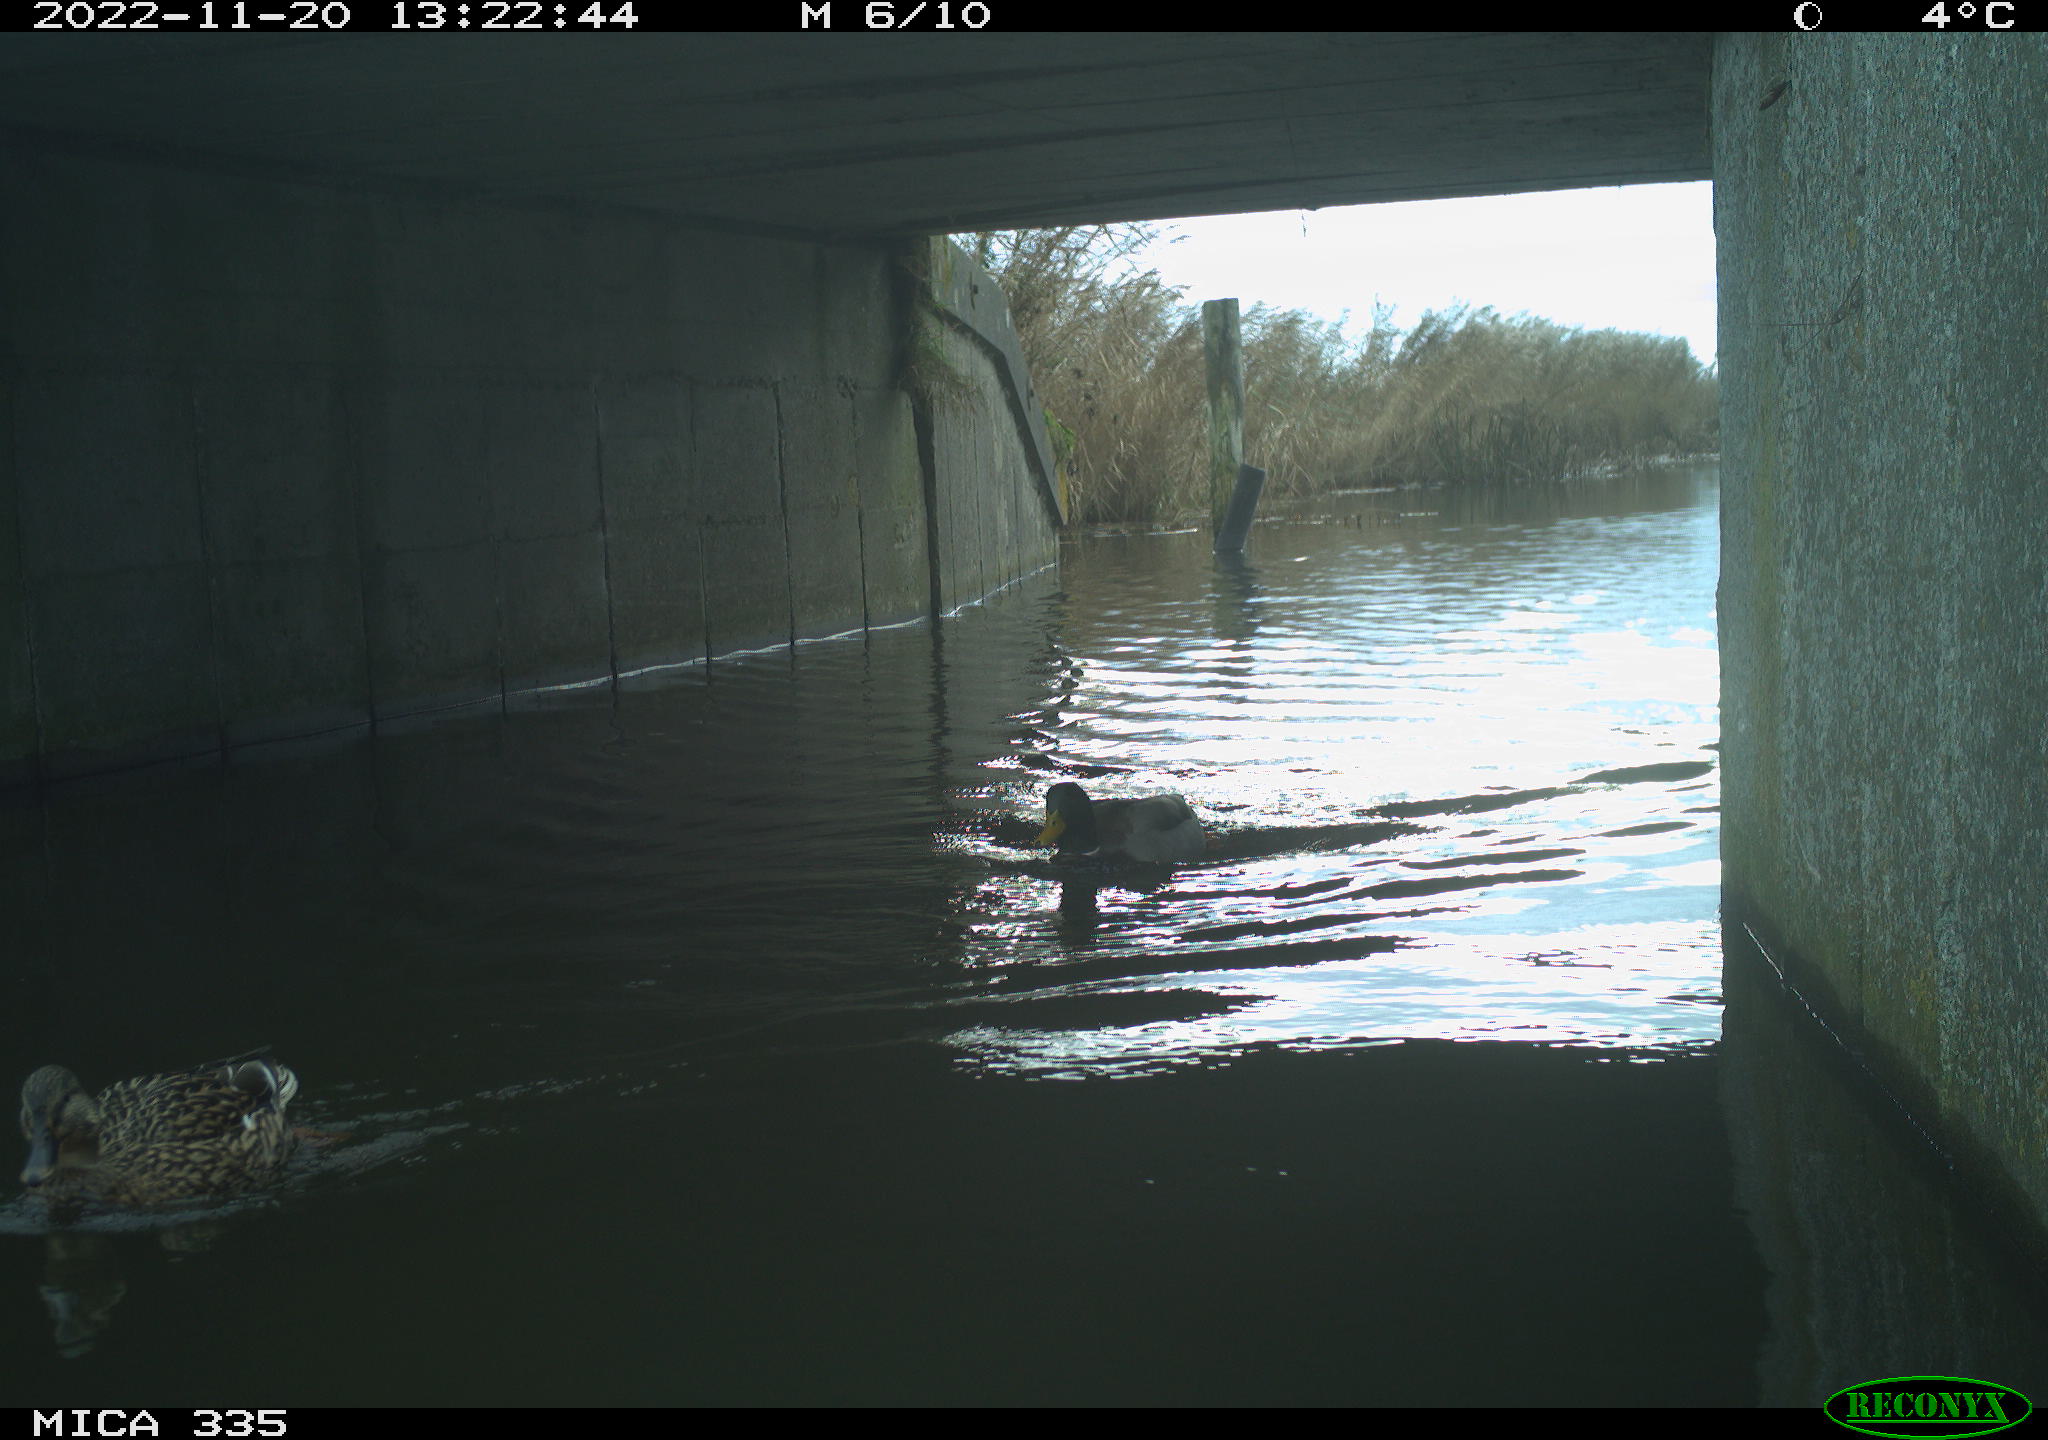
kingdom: Animalia
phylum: Chordata
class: Aves
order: Anseriformes
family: Anatidae
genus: Anas
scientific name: Anas
